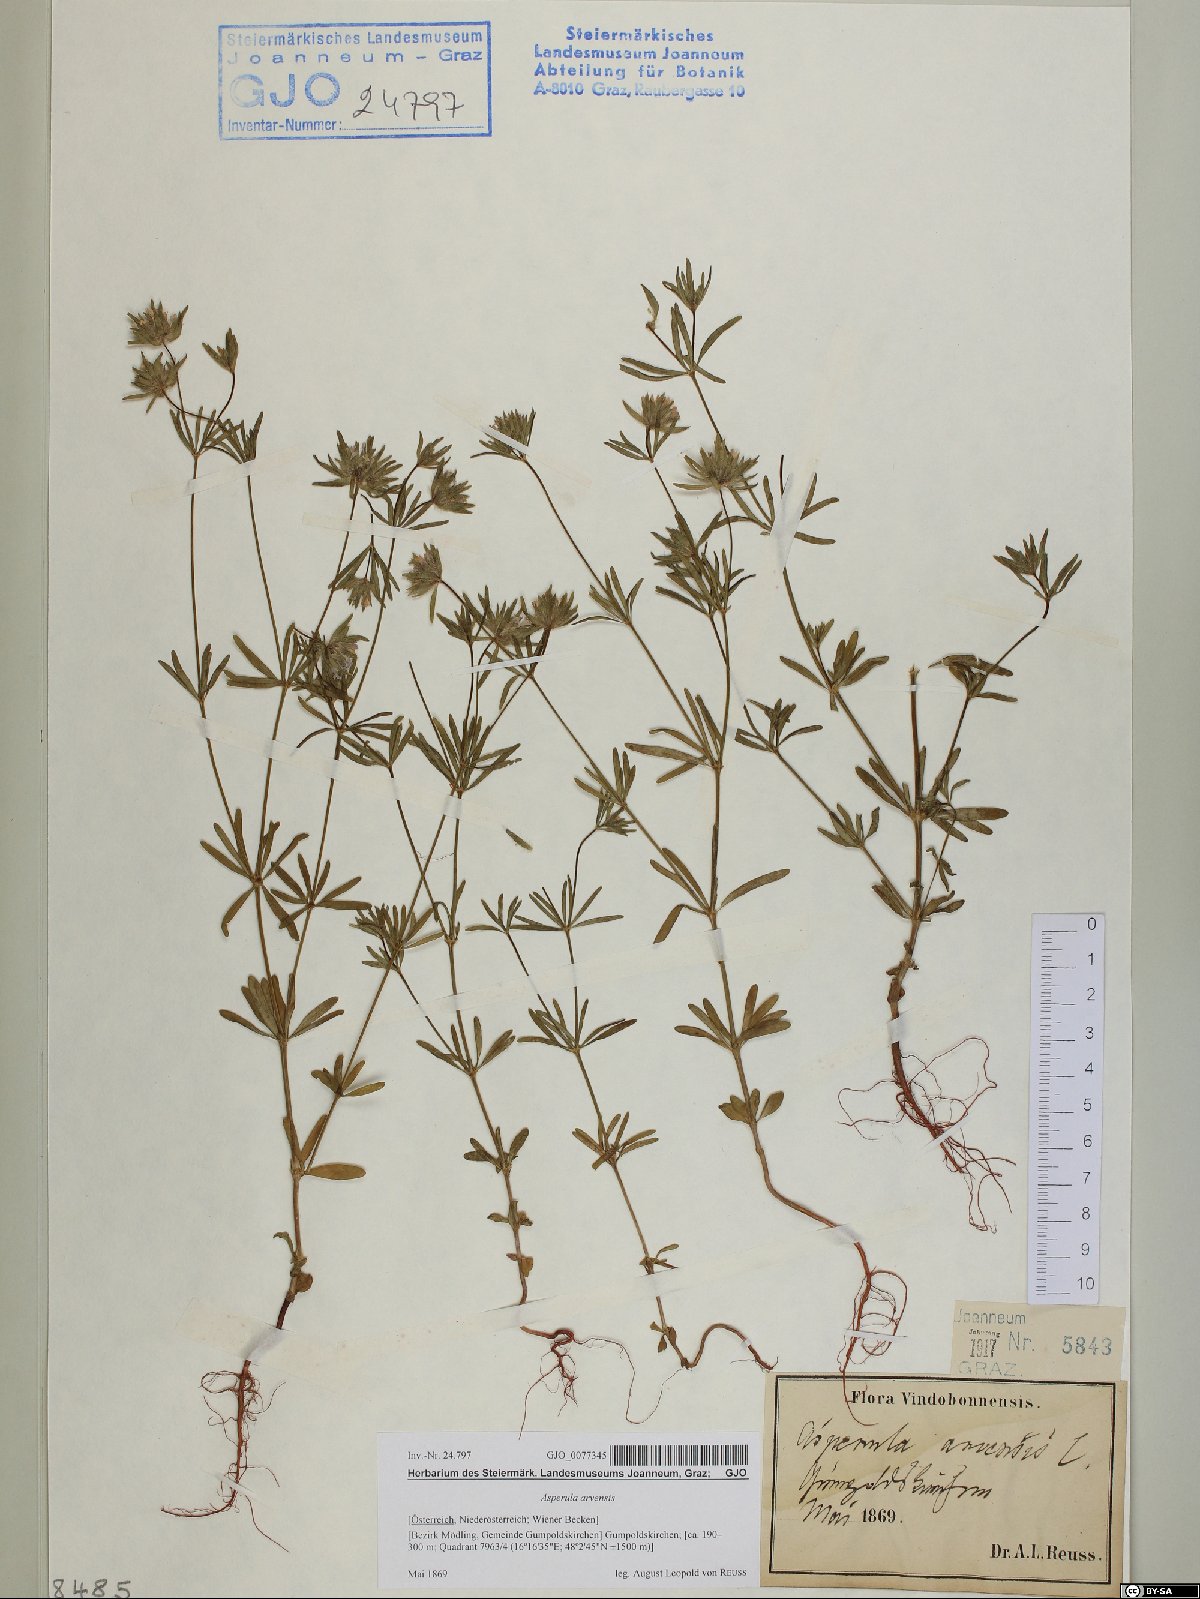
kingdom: Plantae
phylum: Tracheophyta
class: Magnoliopsida
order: Gentianales
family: Rubiaceae
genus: Asperula
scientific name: Asperula arvensis
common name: Blue woodruff
